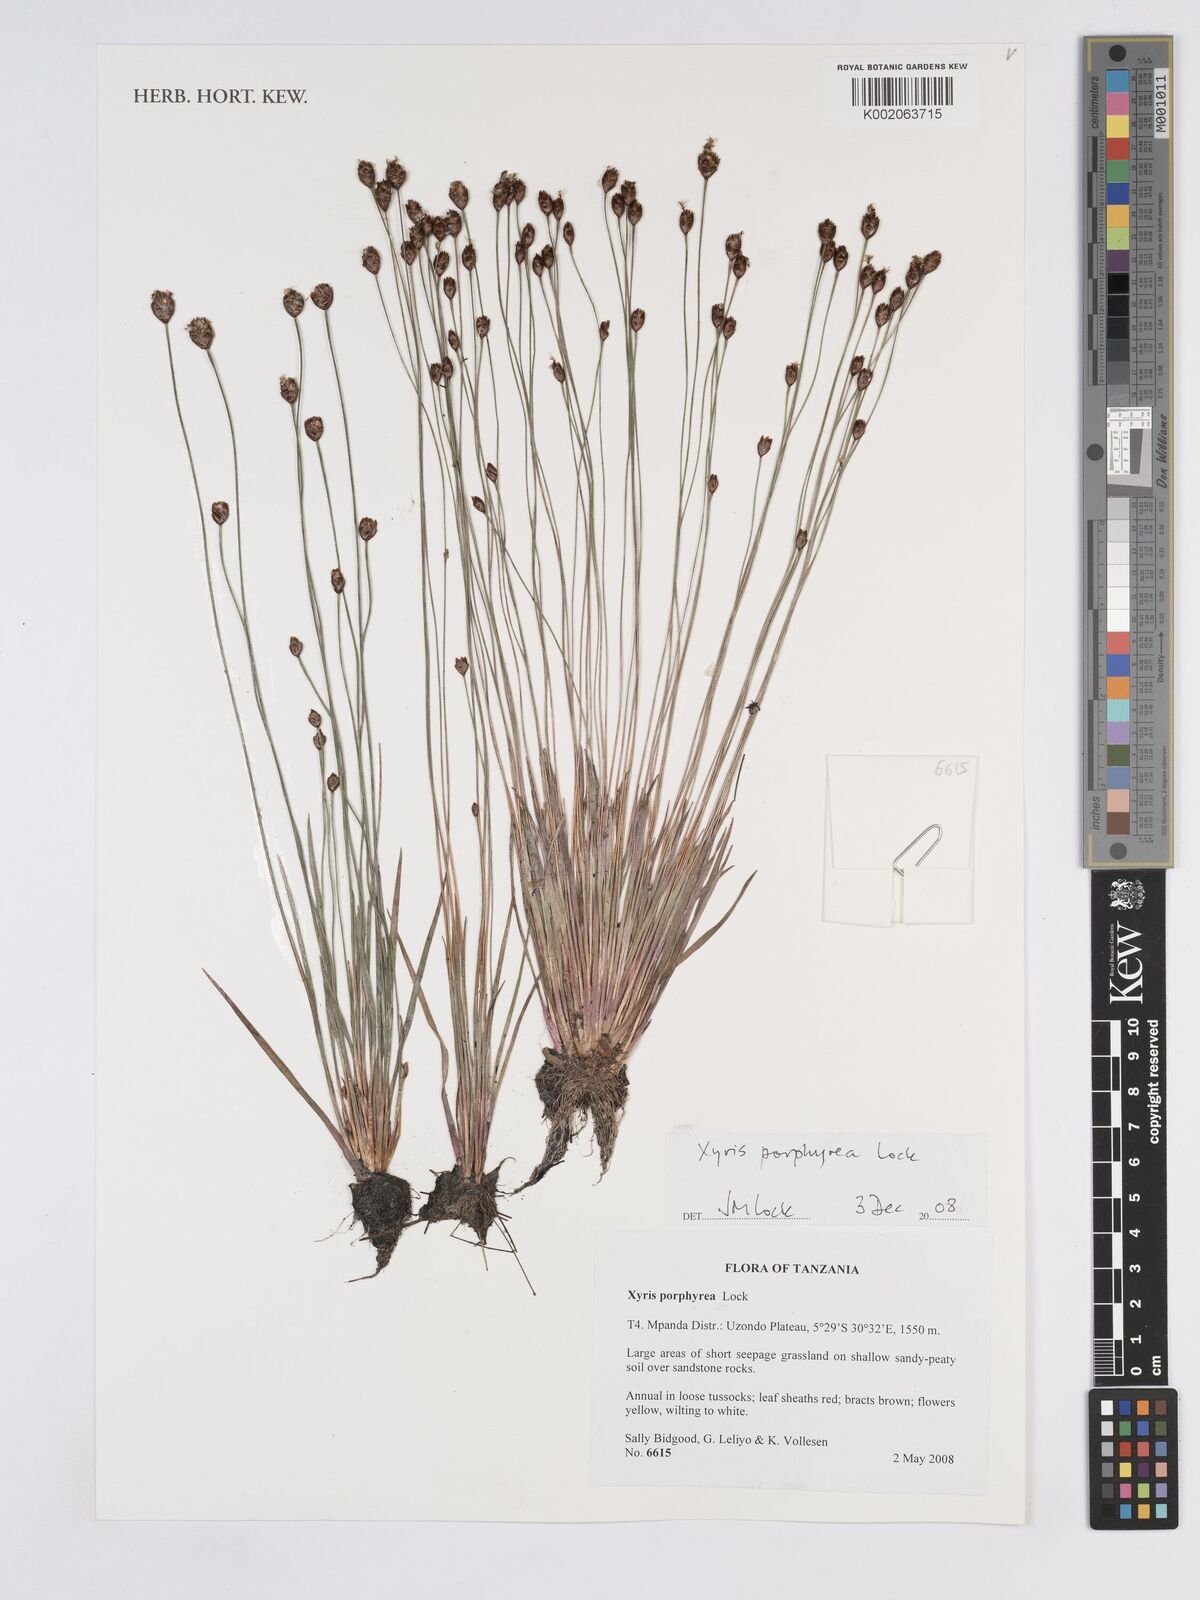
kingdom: Plantae
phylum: Tracheophyta
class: Liliopsida
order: Poales
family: Xyridaceae
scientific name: Xyridaceae
